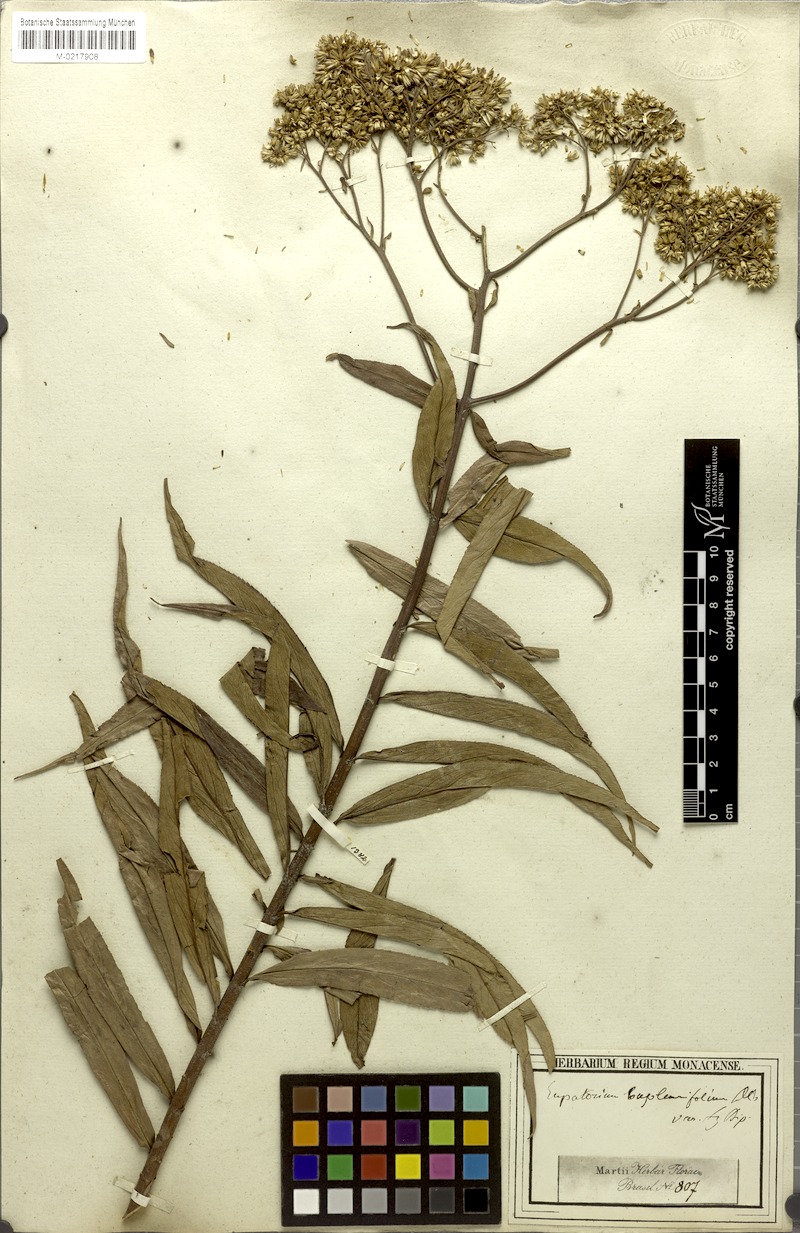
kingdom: Plantae
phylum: Tracheophyta
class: Magnoliopsida
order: Asterales
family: Asteraceae
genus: Campovassouria
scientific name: Campovassouria cruciata
